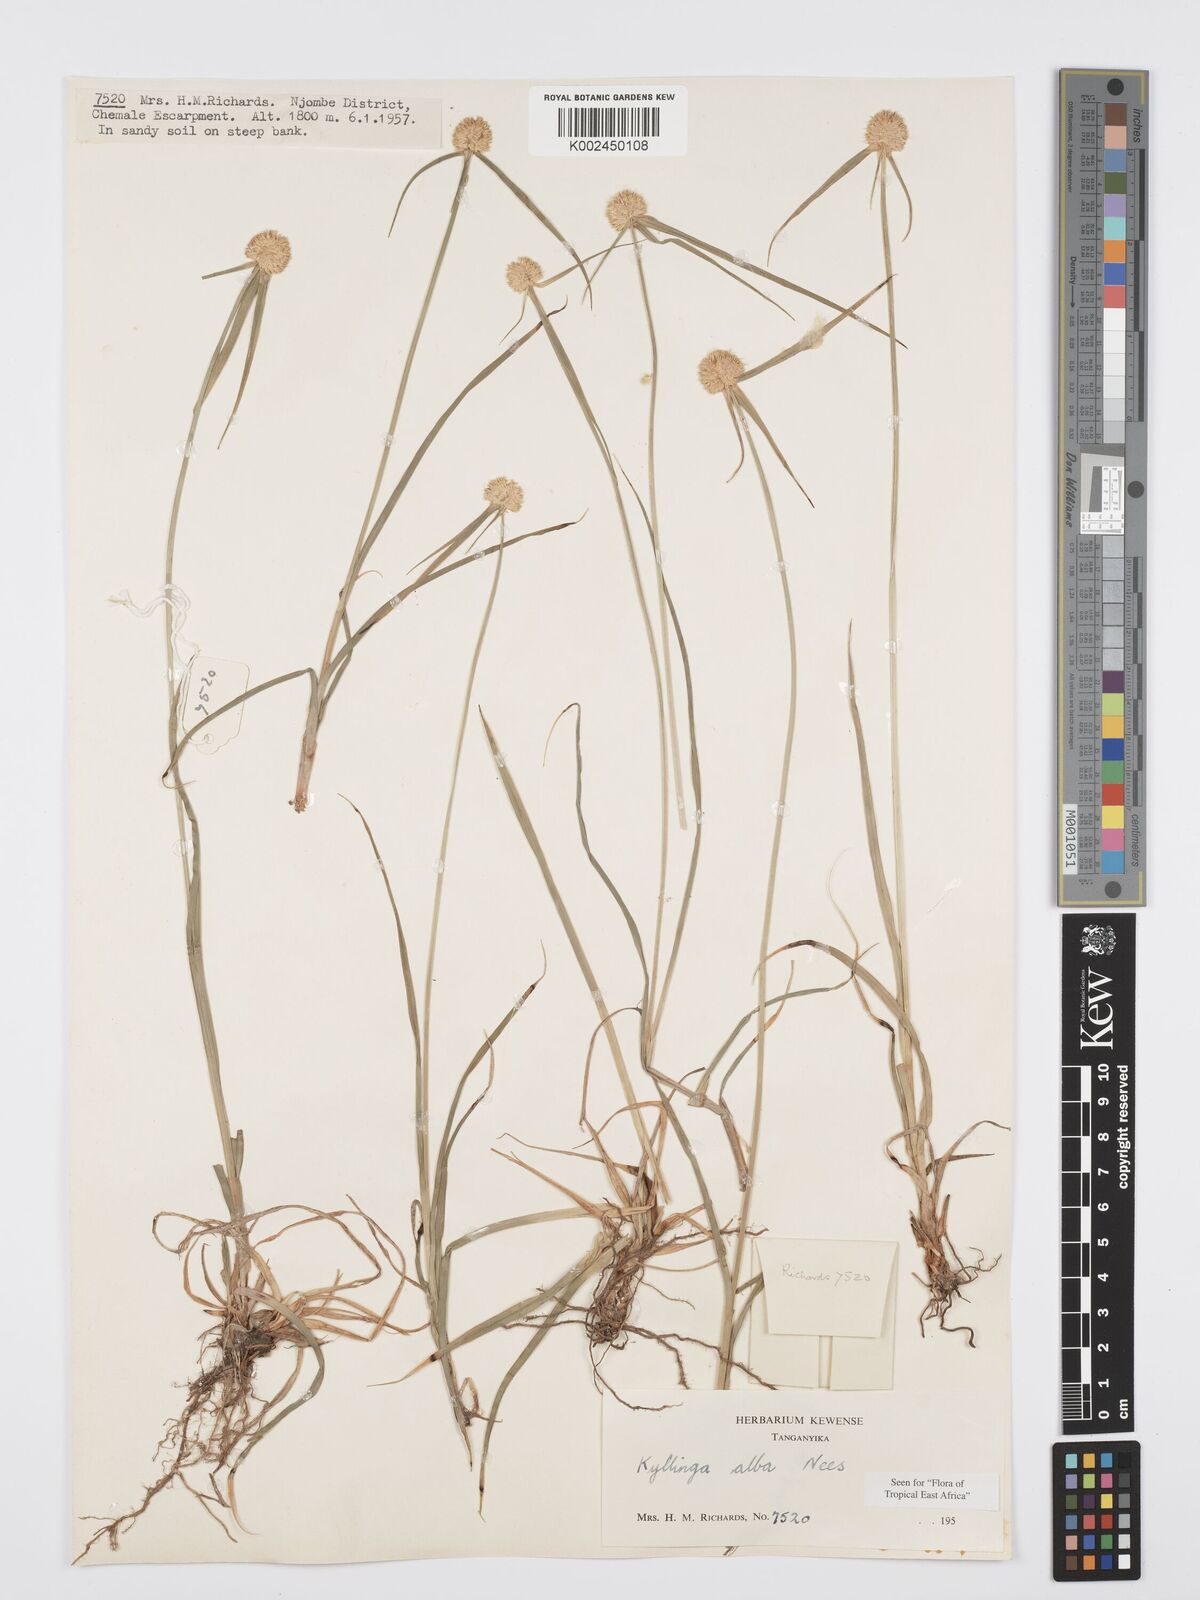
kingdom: Plantae
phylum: Tracheophyta
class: Liliopsida
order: Poales
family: Cyperaceae
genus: Cyperus
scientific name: Cyperus
